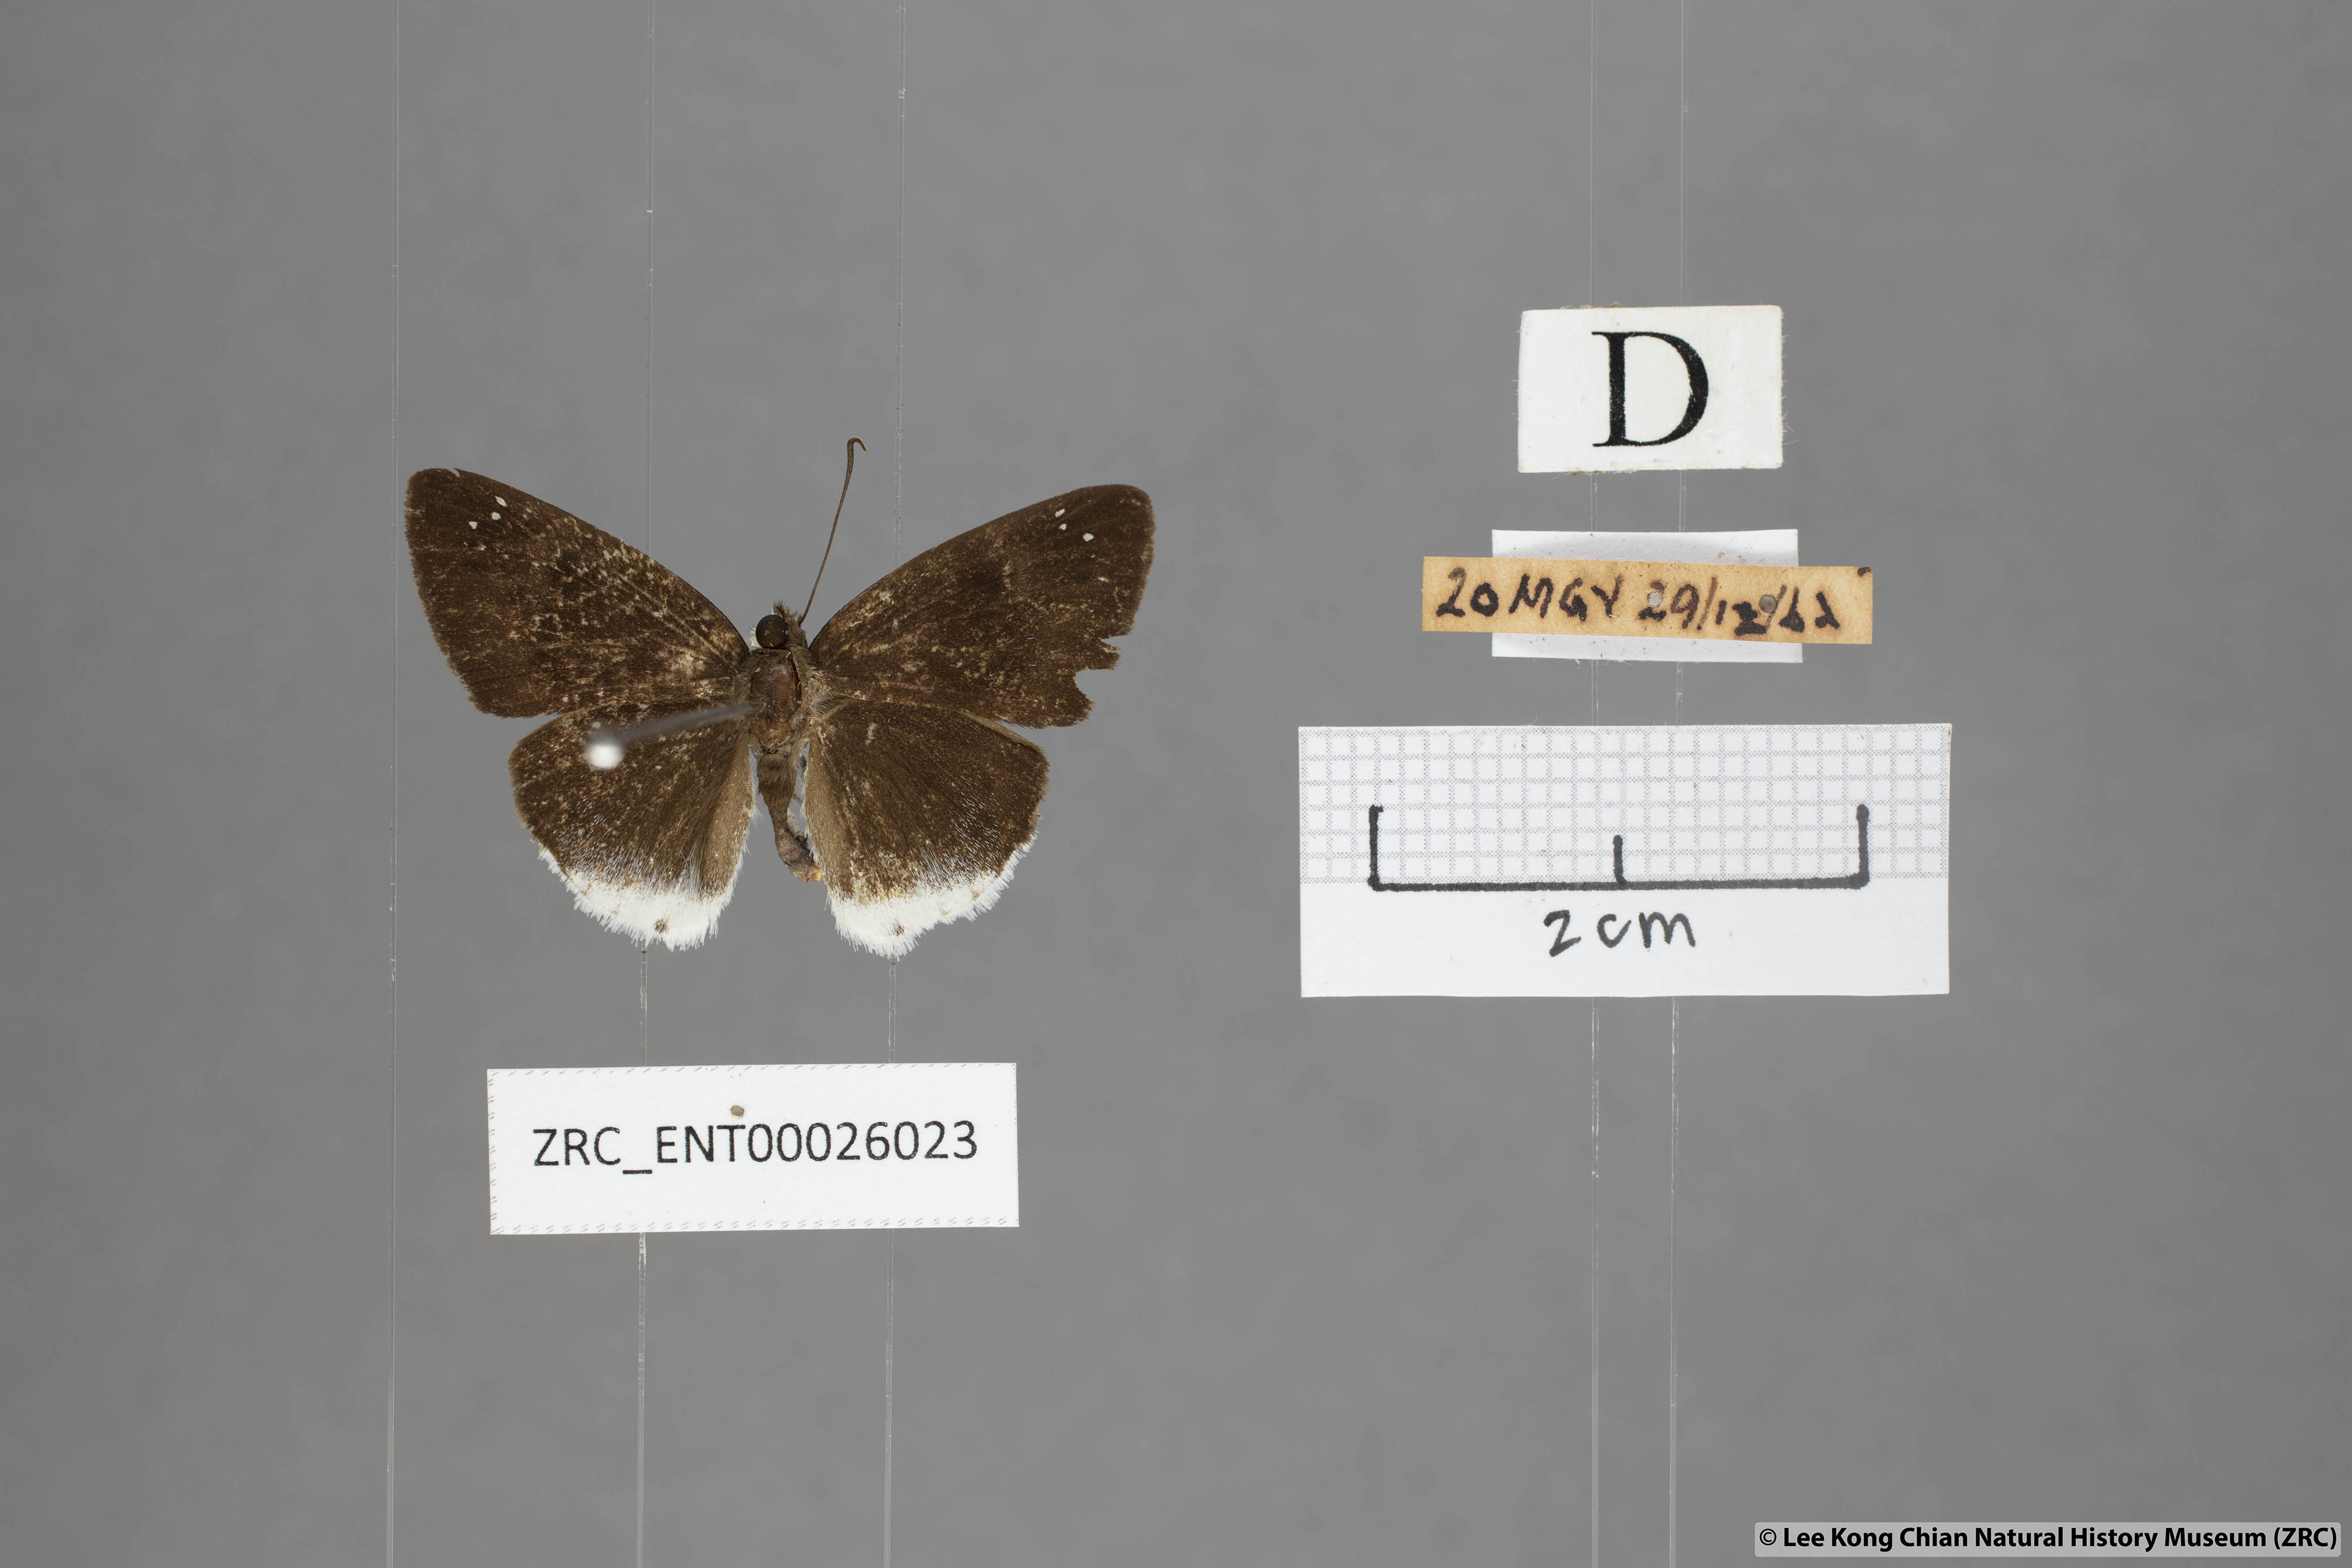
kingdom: Animalia
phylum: Arthropoda
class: Insecta
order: Lepidoptera
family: Hesperiidae
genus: Tagiades
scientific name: Tagiades lavata
